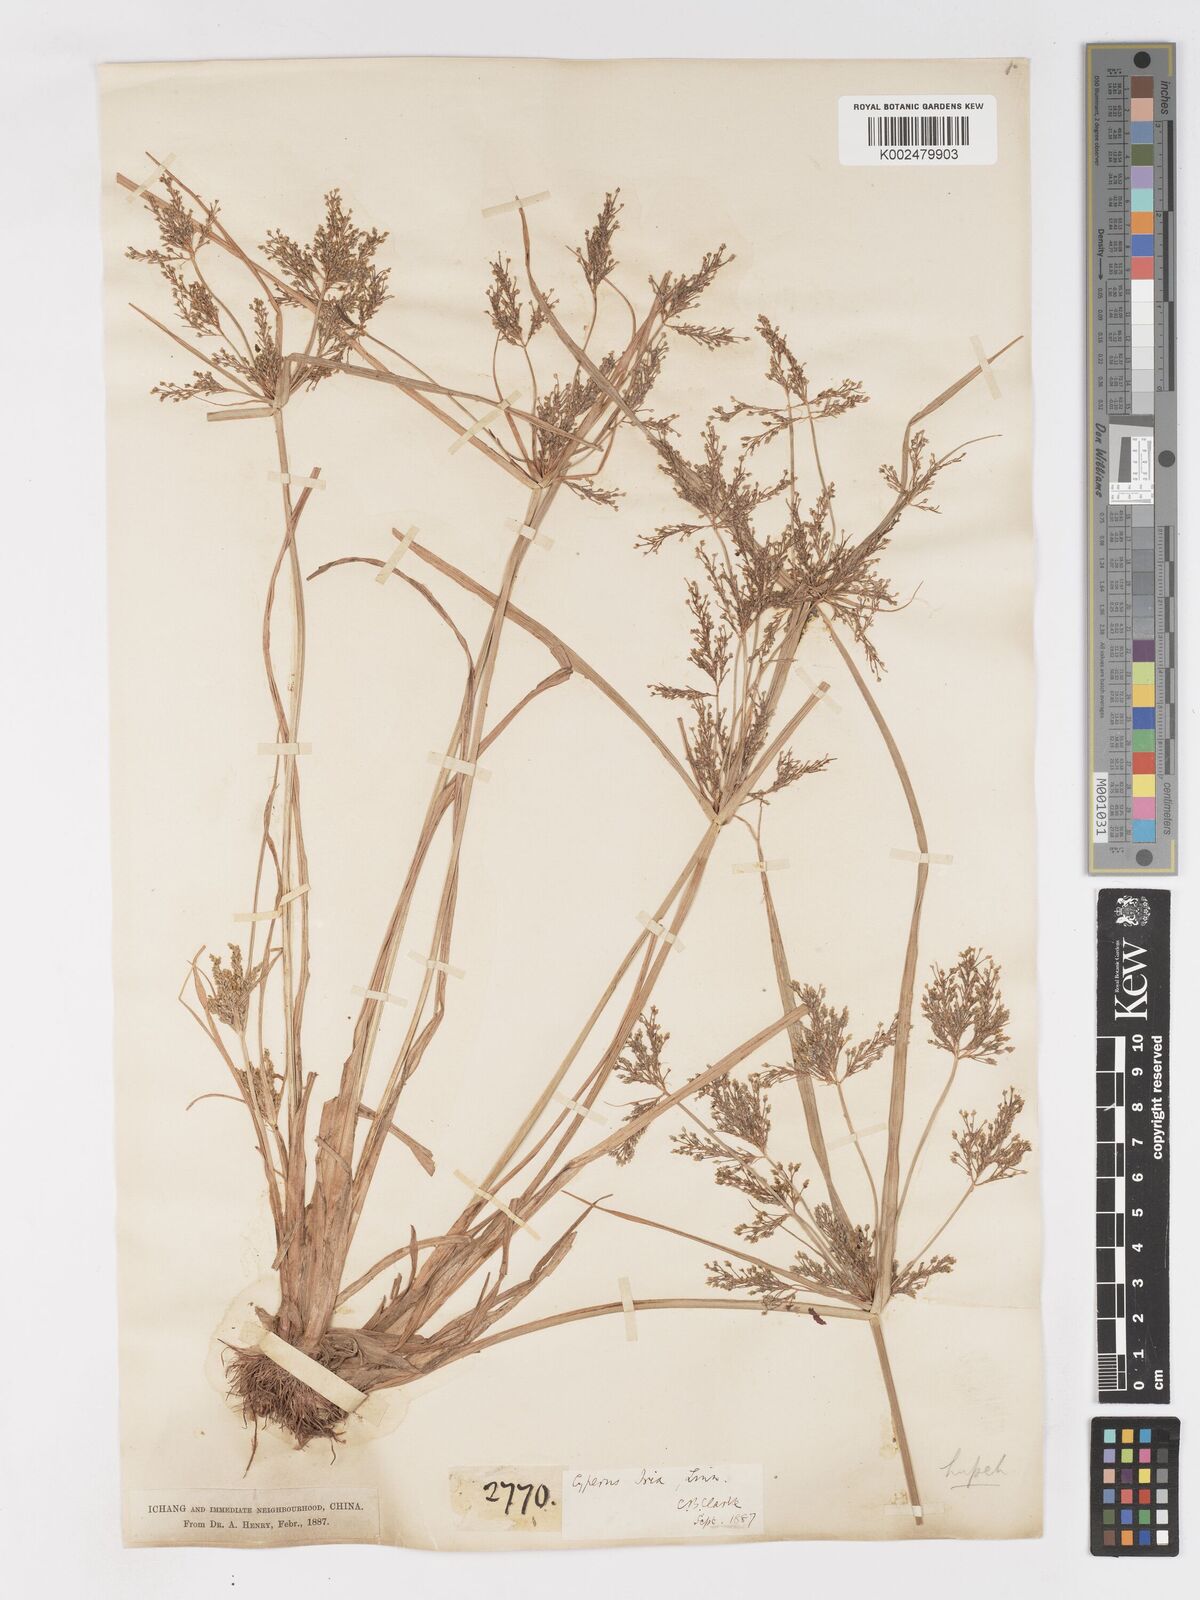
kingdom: Plantae
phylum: Tracheophyta
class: Liliopsida
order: Poales
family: Cyperaceae
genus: Cyperus
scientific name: Cyperus iria
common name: Ricefield flatsedge
